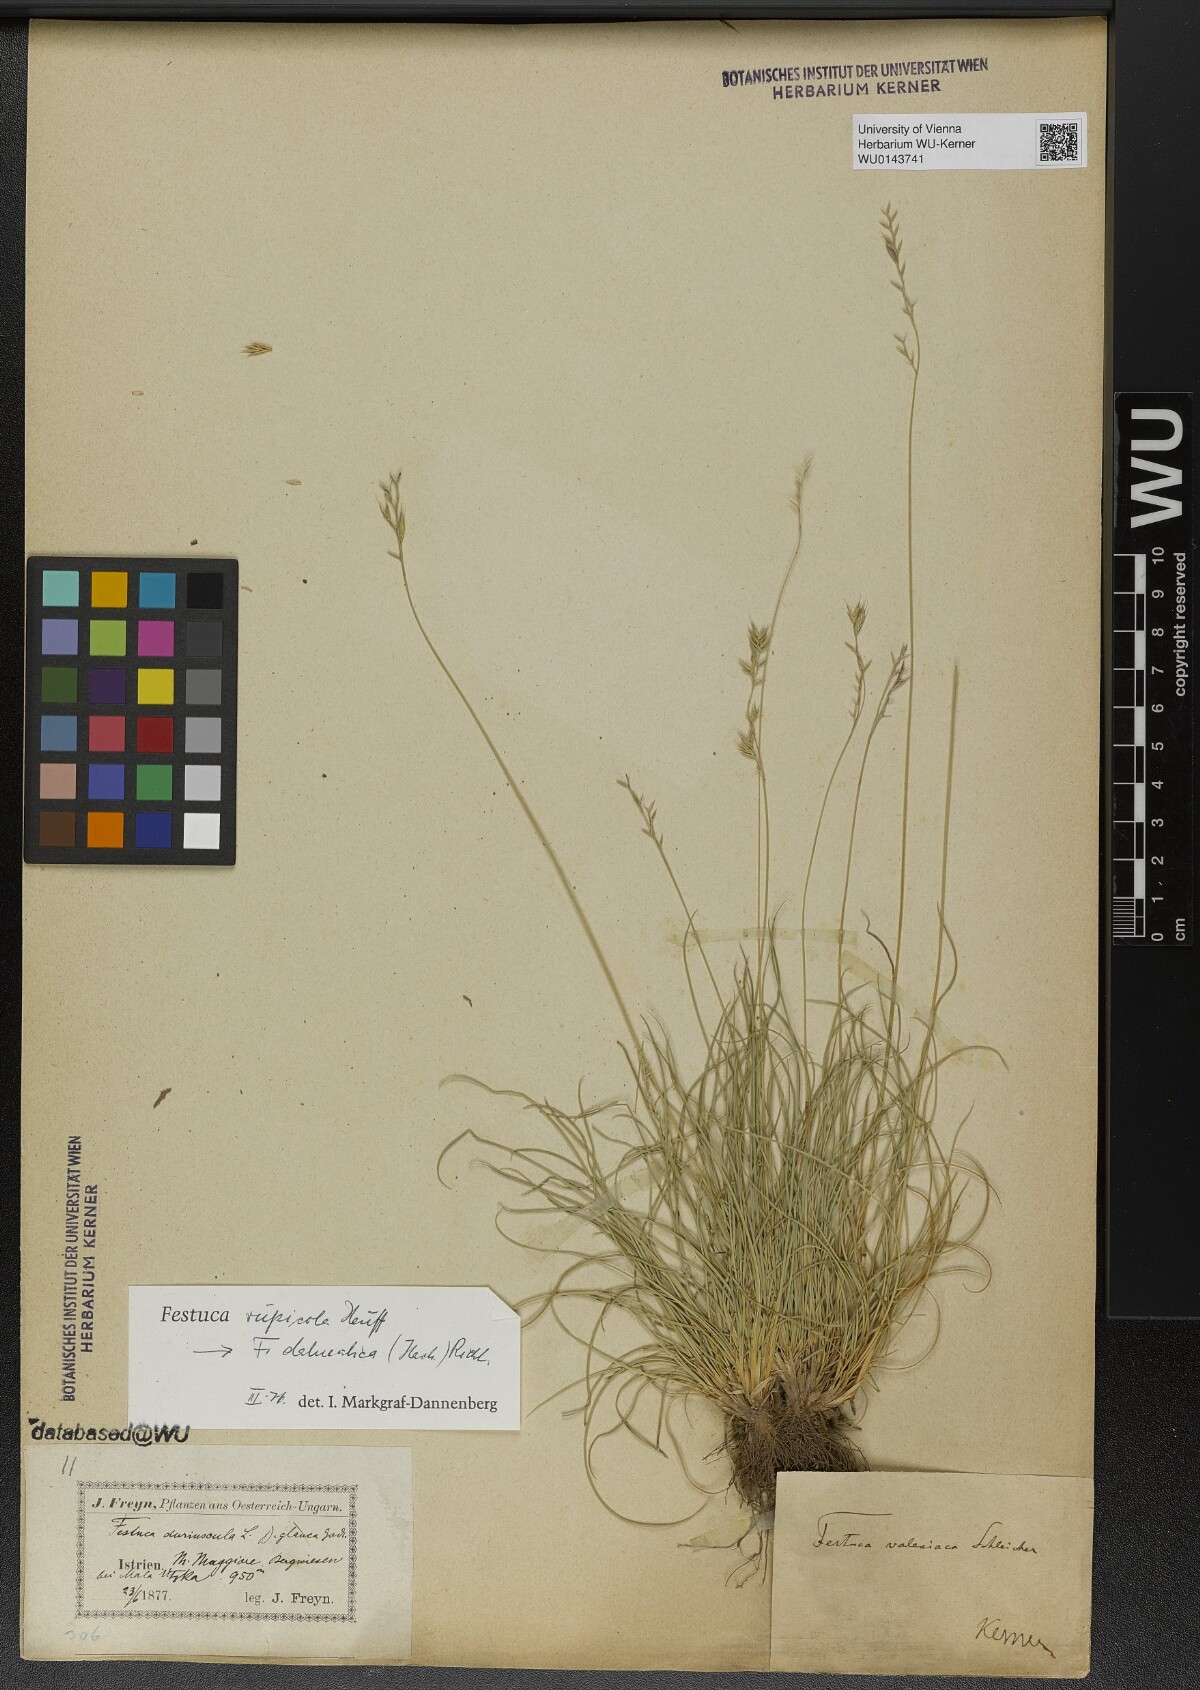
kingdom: Plantae
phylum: Tracheophyta
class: Liliopsida
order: Poales
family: Poaceae
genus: Festuca
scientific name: Festuca dalmatica
